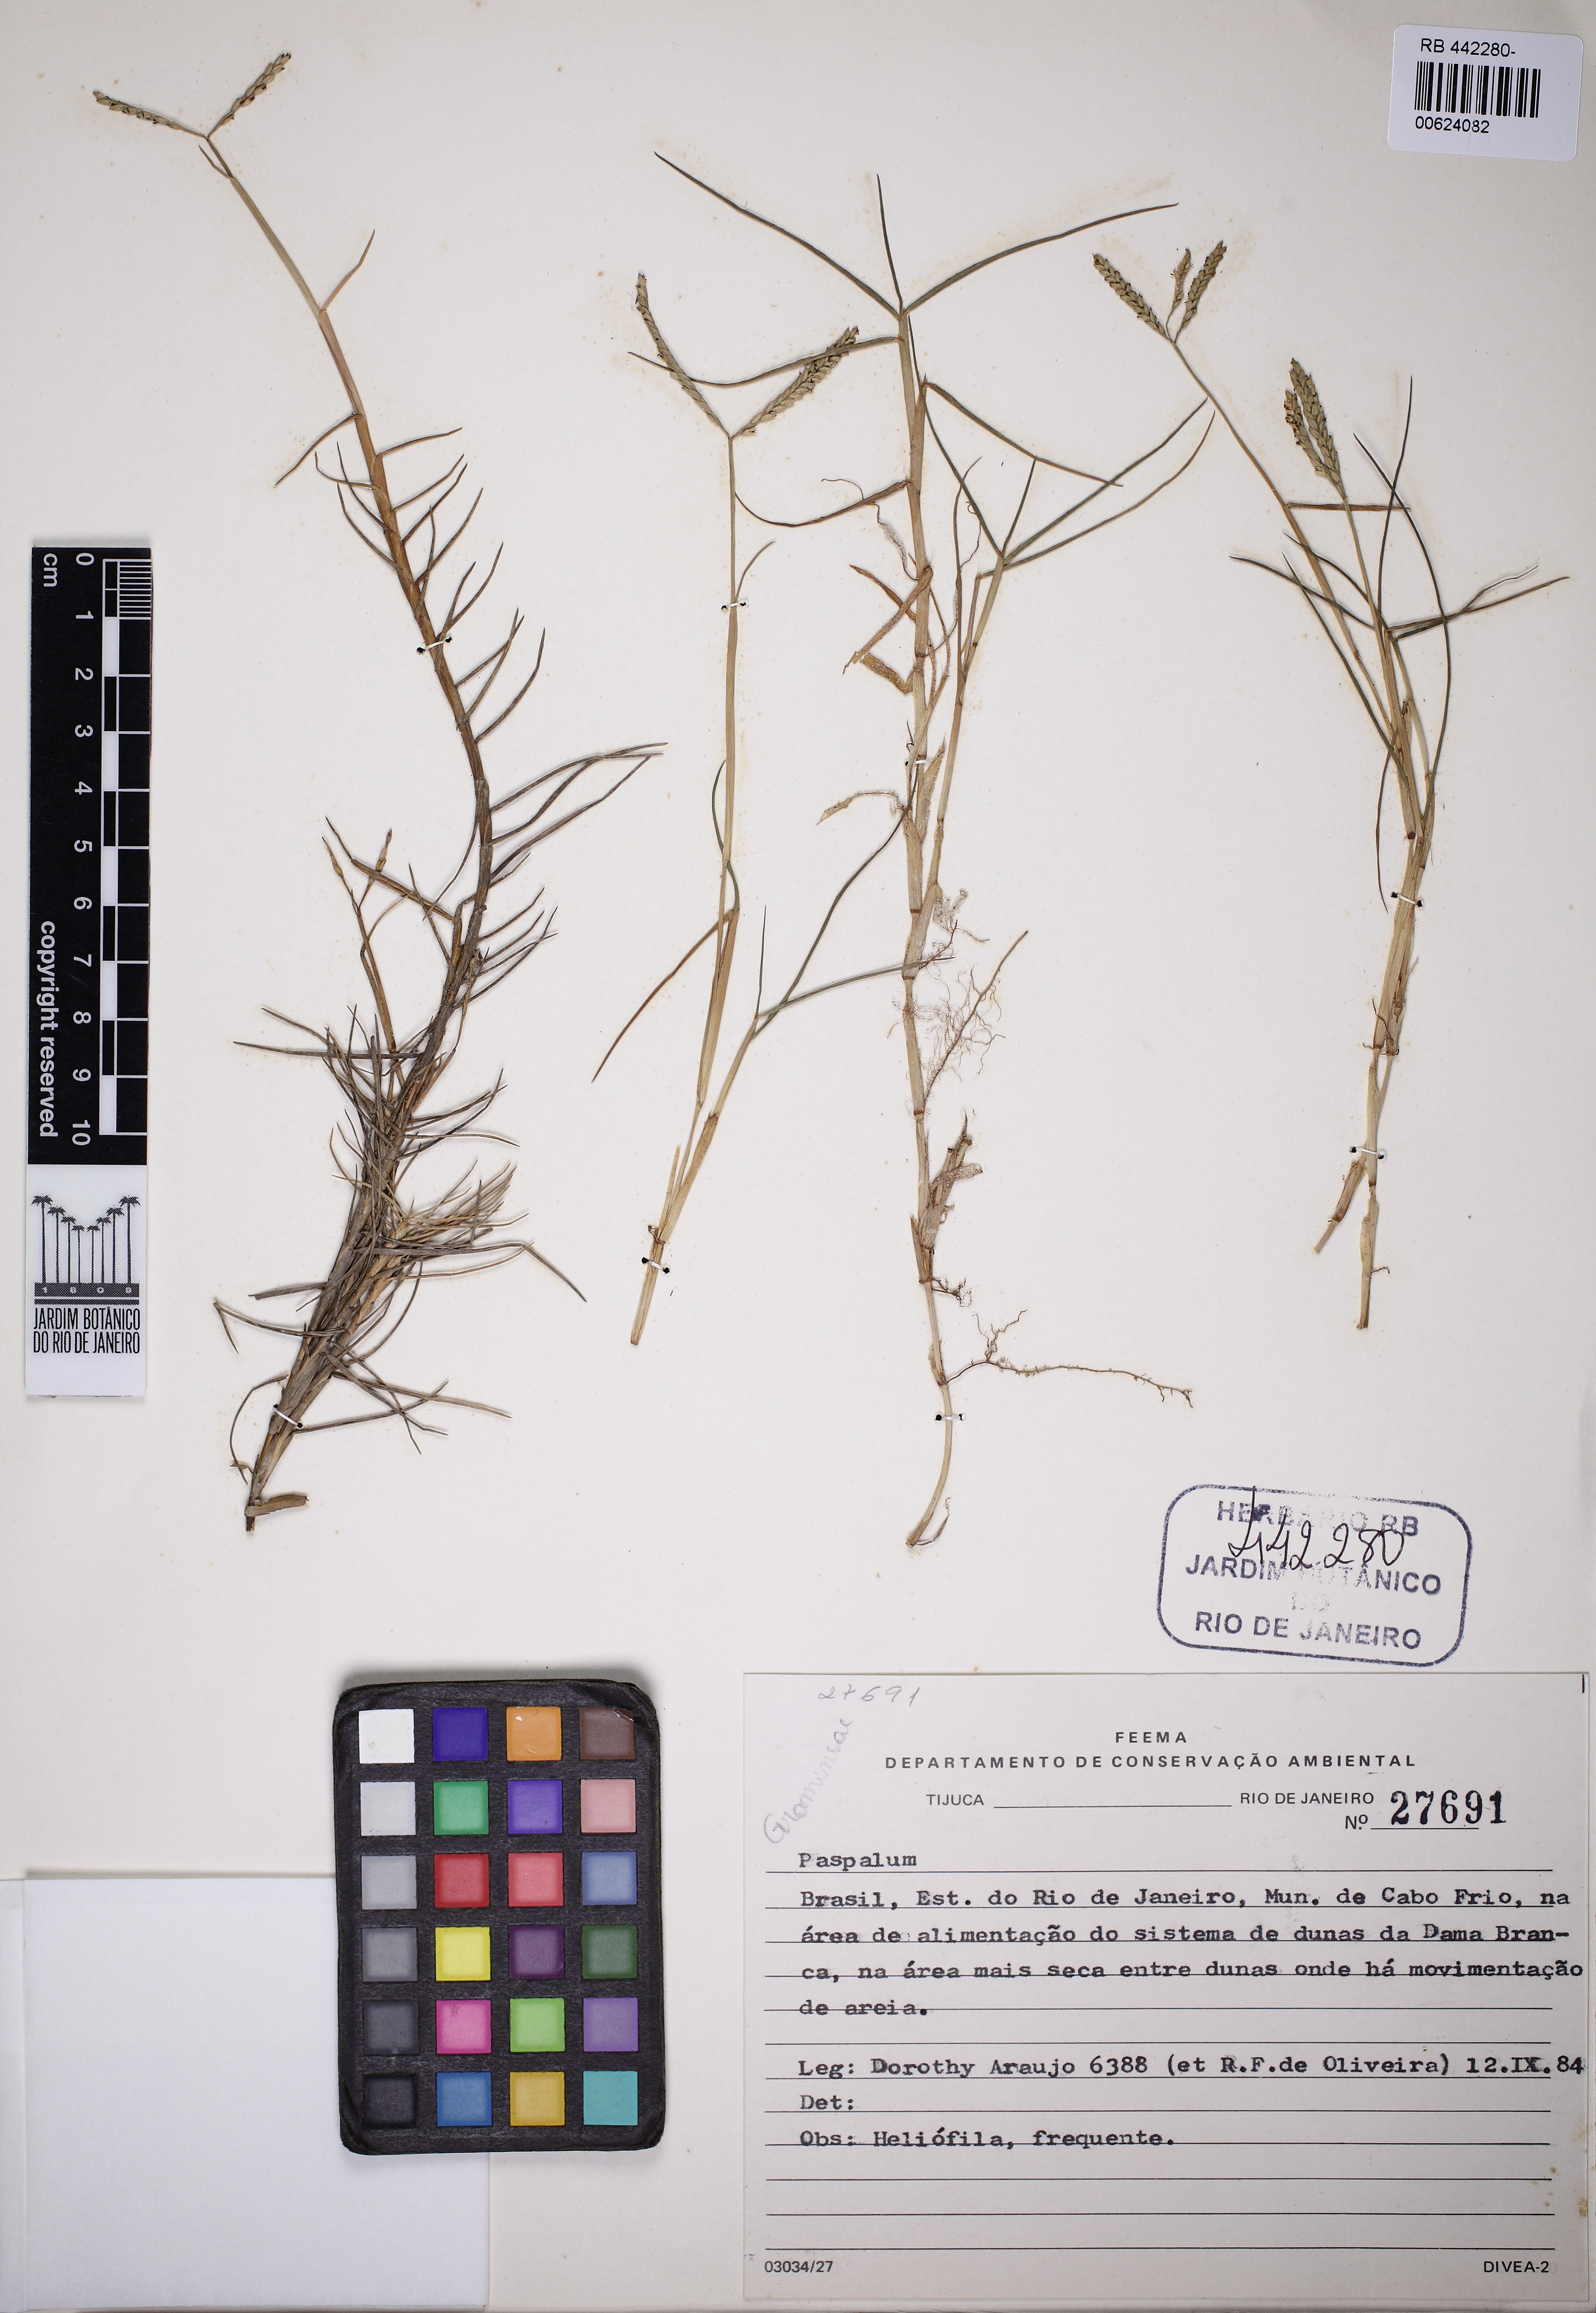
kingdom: Plantae
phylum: Tracheophyta
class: Liliopsida
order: Poales
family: Poaceae
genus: Paspalum
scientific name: Paspalum
